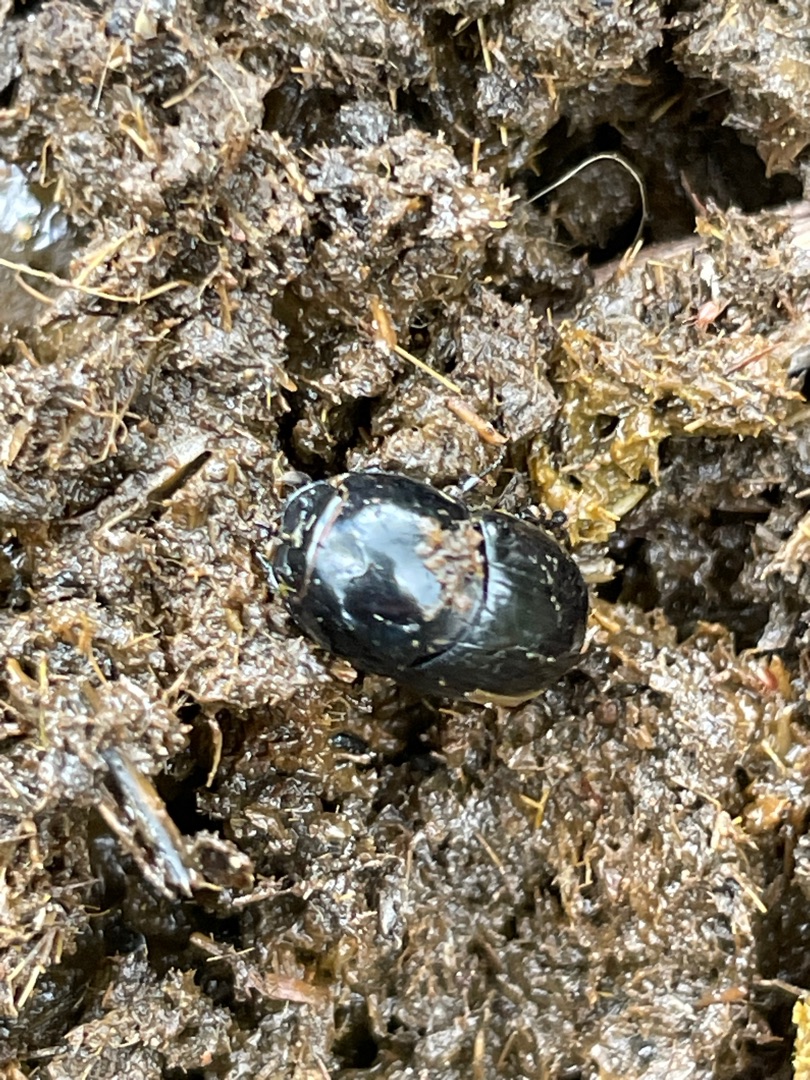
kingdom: Animalia
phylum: Arthropoda
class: Insecta
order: Coleoptera
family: Scarabaeidae
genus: Teuchestes
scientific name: Teuchestes fossor
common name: Stor møgbille
